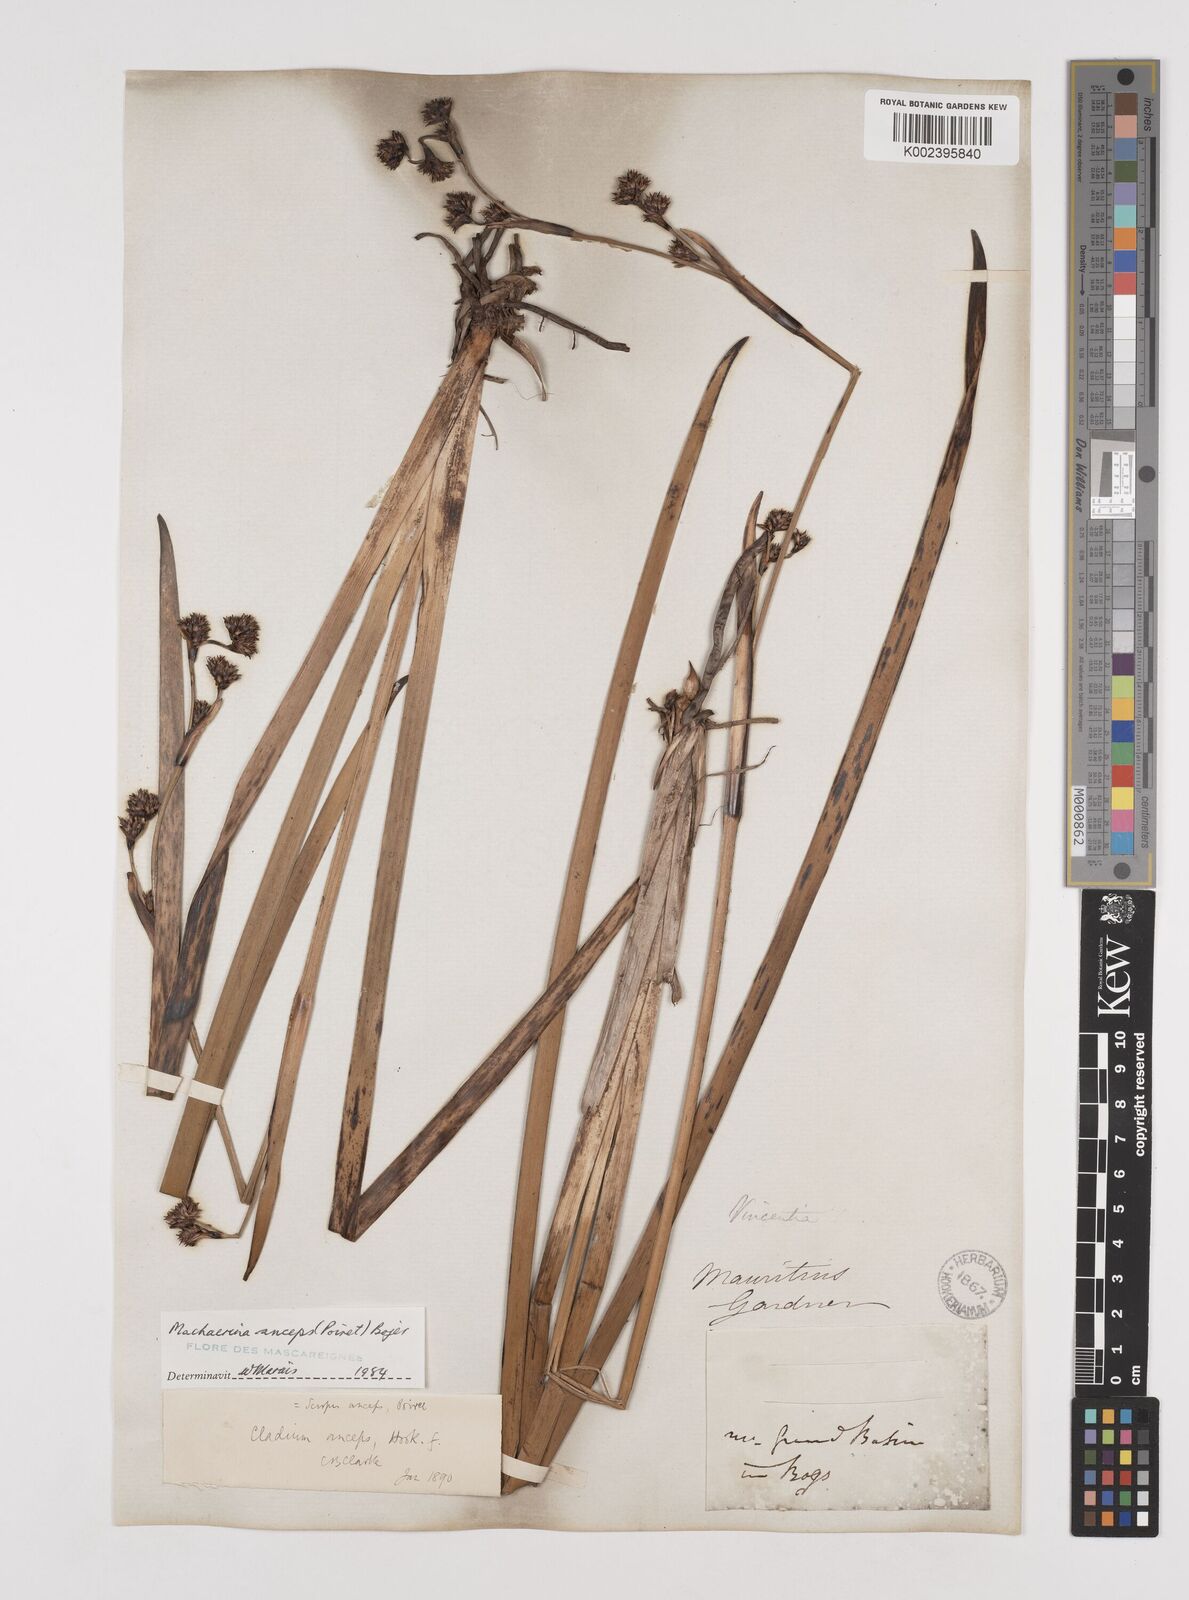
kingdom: Plantae
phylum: Tracheophyta
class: Liliopsida
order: Poales
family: Cyperaceae
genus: Machaerina
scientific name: Machaerina anceps
